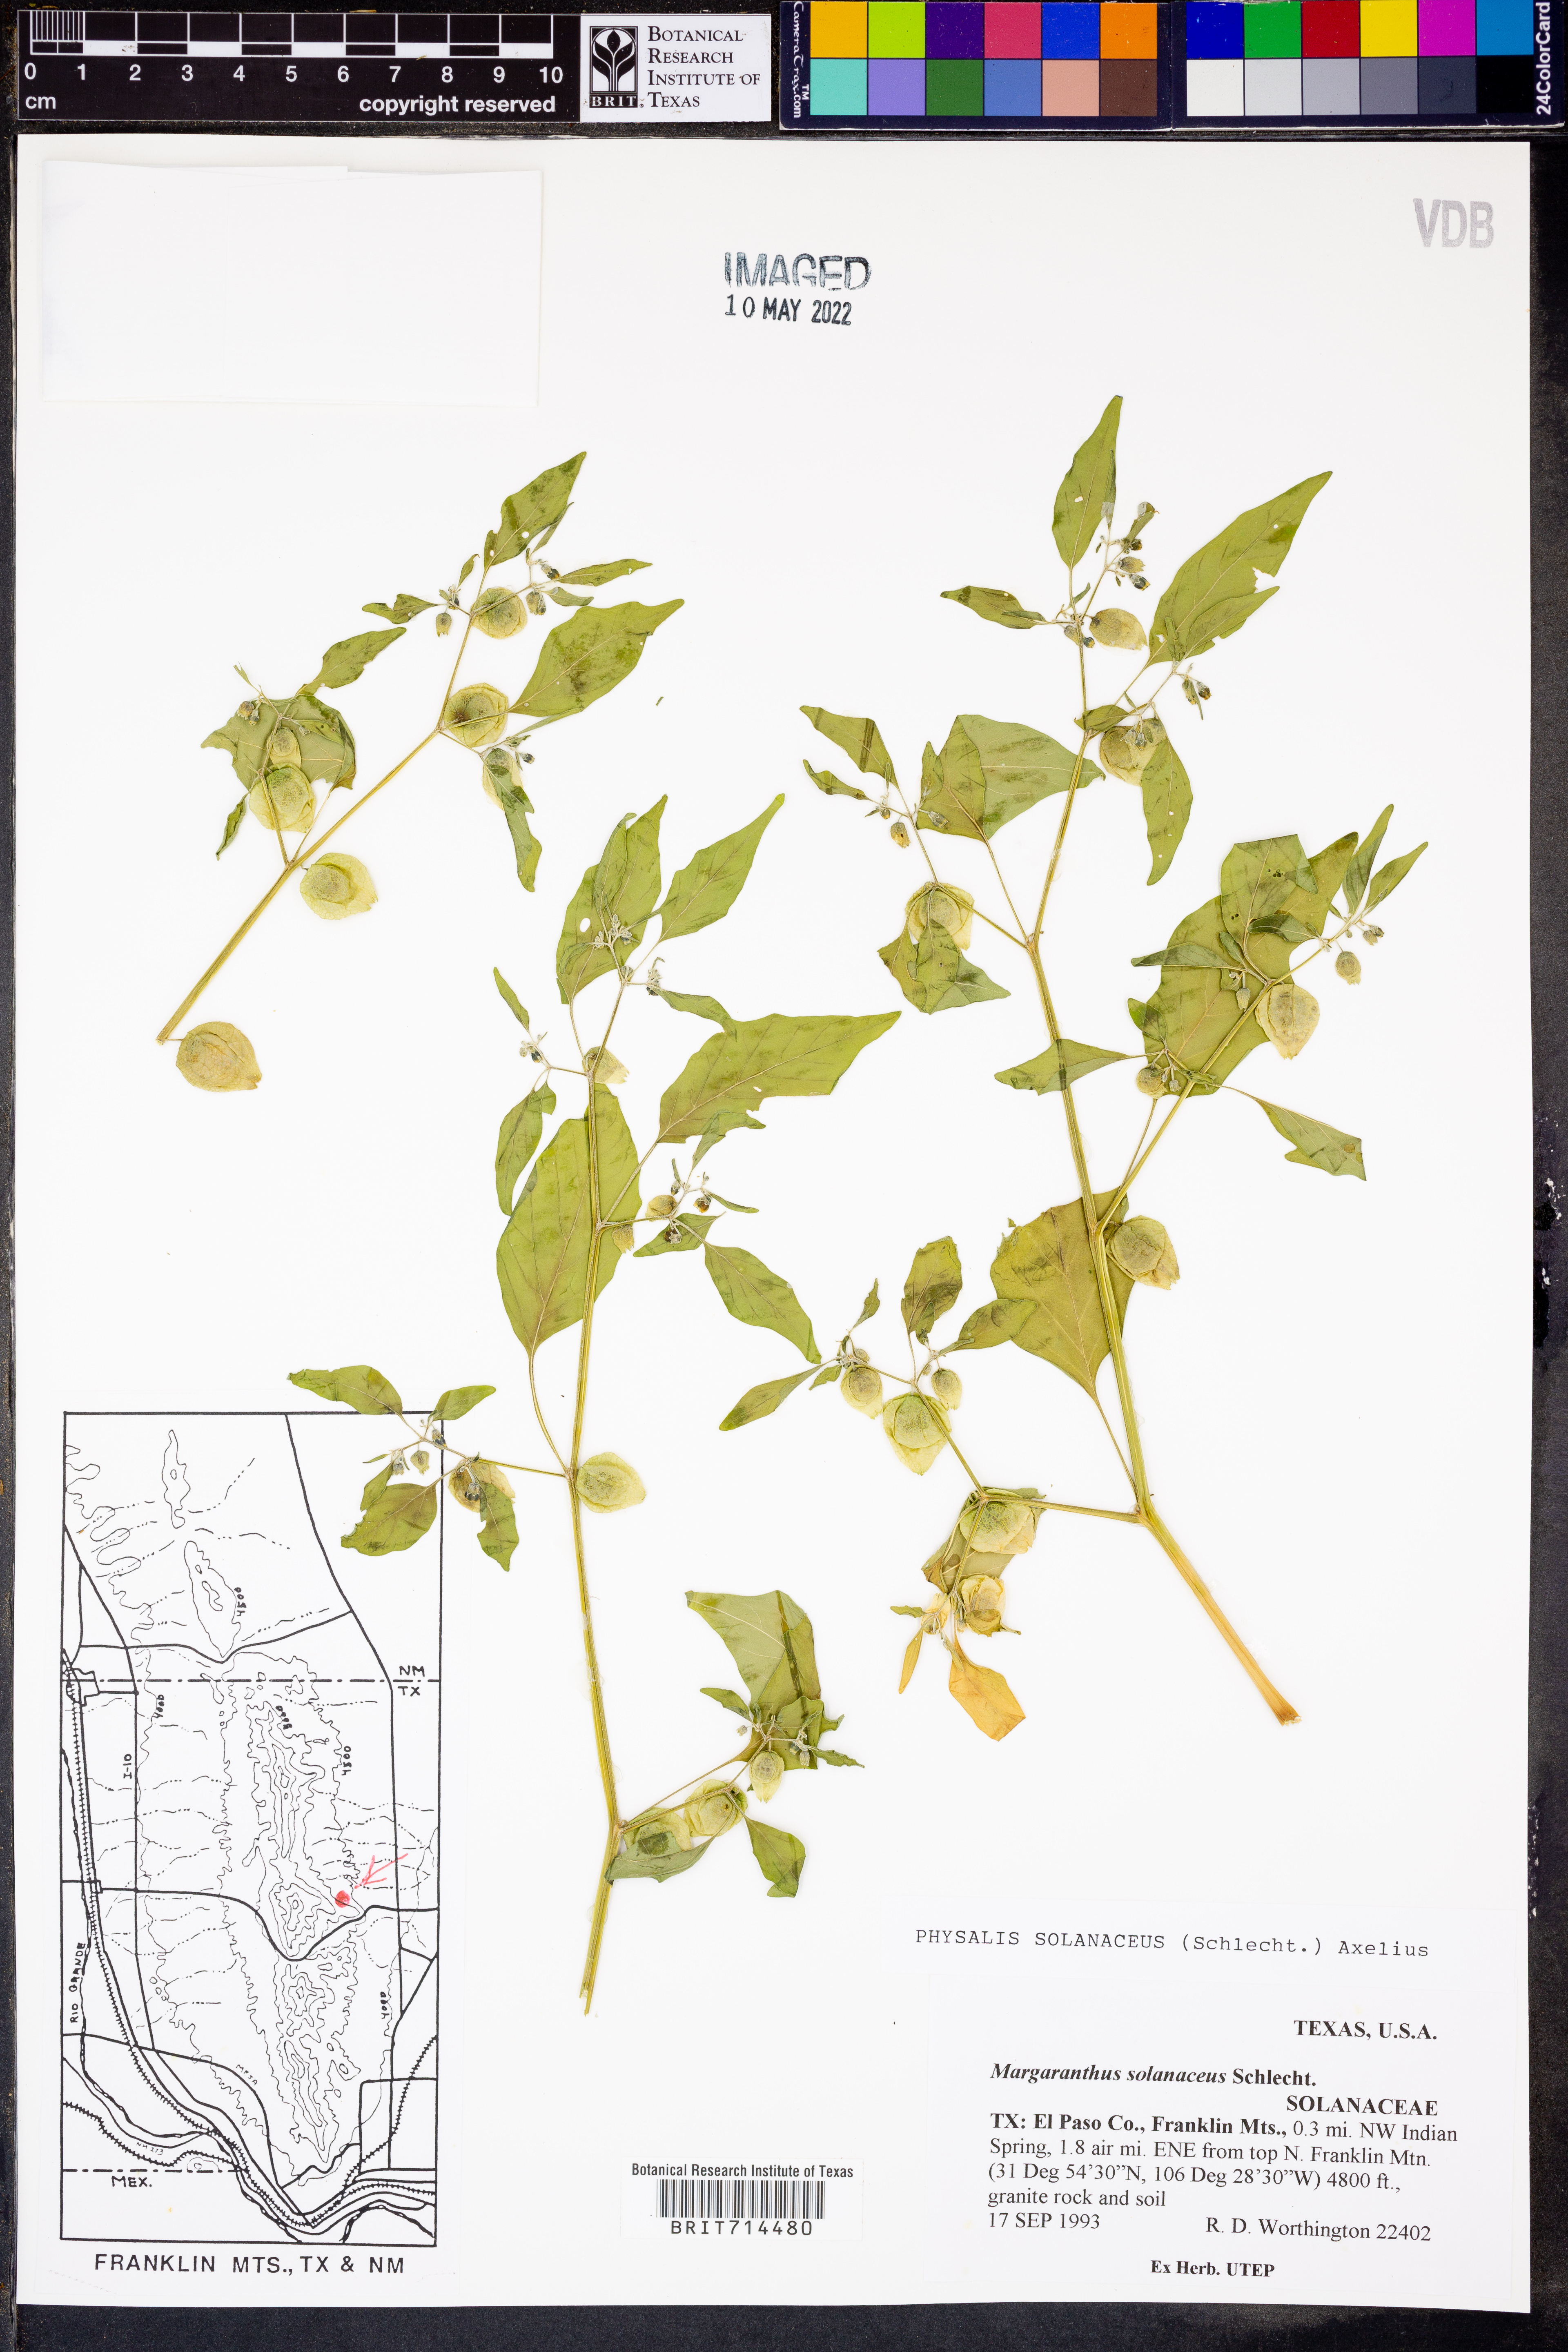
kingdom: Plantae
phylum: Tracheophyta
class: Magnoliopsida
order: Solanales
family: Solanaceae
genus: Physalis
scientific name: Physalis solanacea
